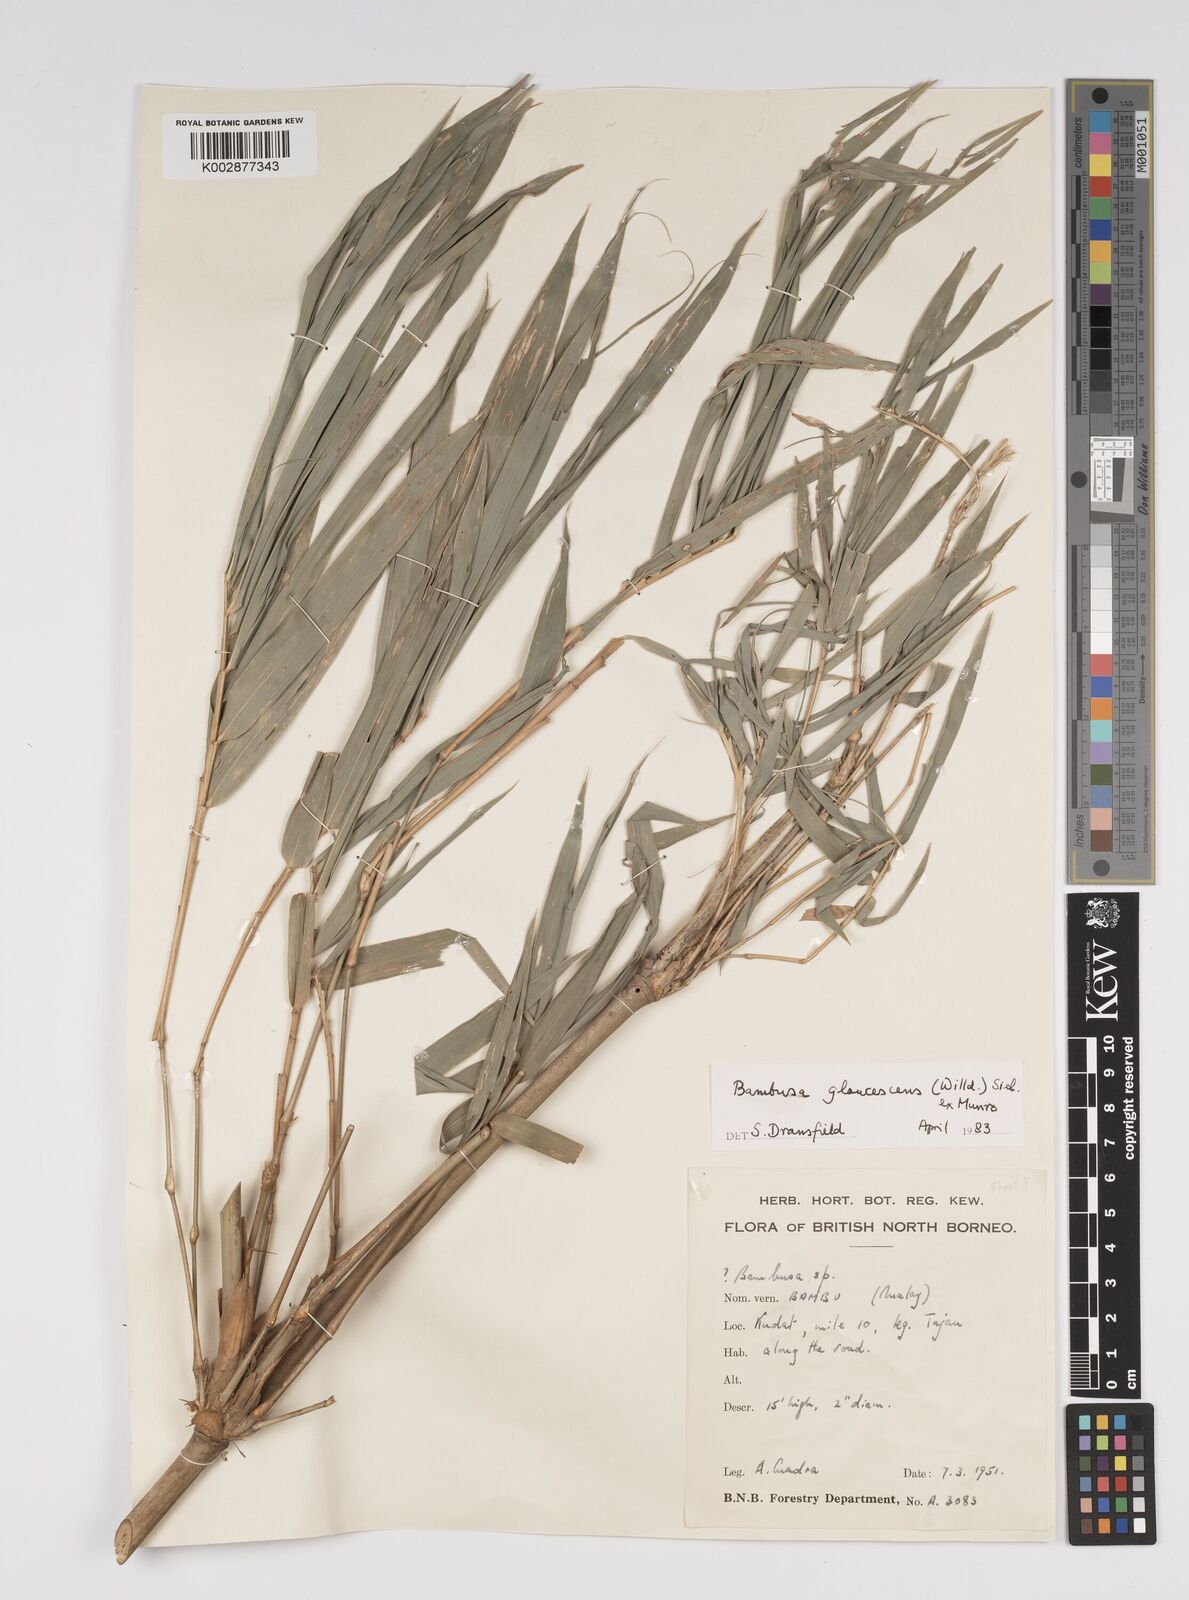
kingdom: Plantae
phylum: Tracheophyta
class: Liliopsida
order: Poales
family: Poaceae
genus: Bambusa
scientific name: Bambusa multiplex
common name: Hedge bamboo
